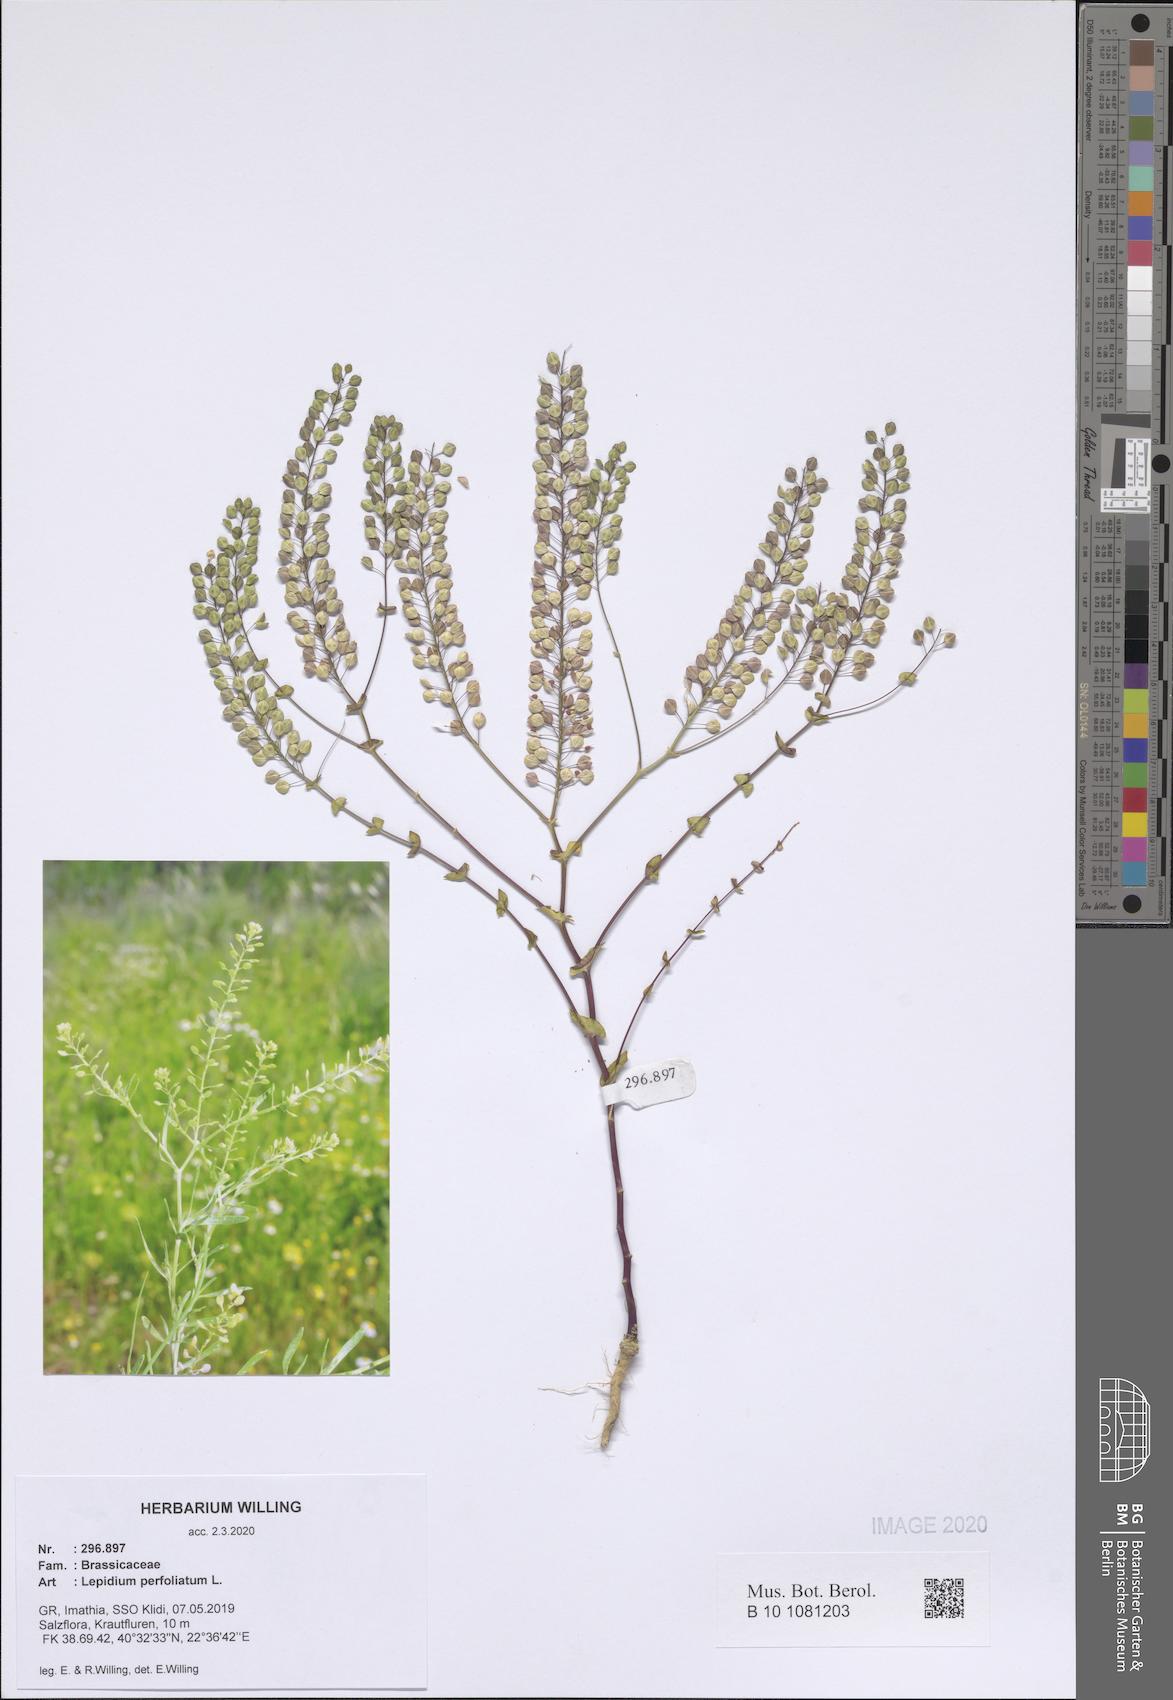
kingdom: Plantae
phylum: Tracheophyta
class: Magnoliopsida
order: Brassicales
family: Brassicaceae
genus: Lepidium
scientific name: Lepidium virginicum
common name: Least pepperwort
